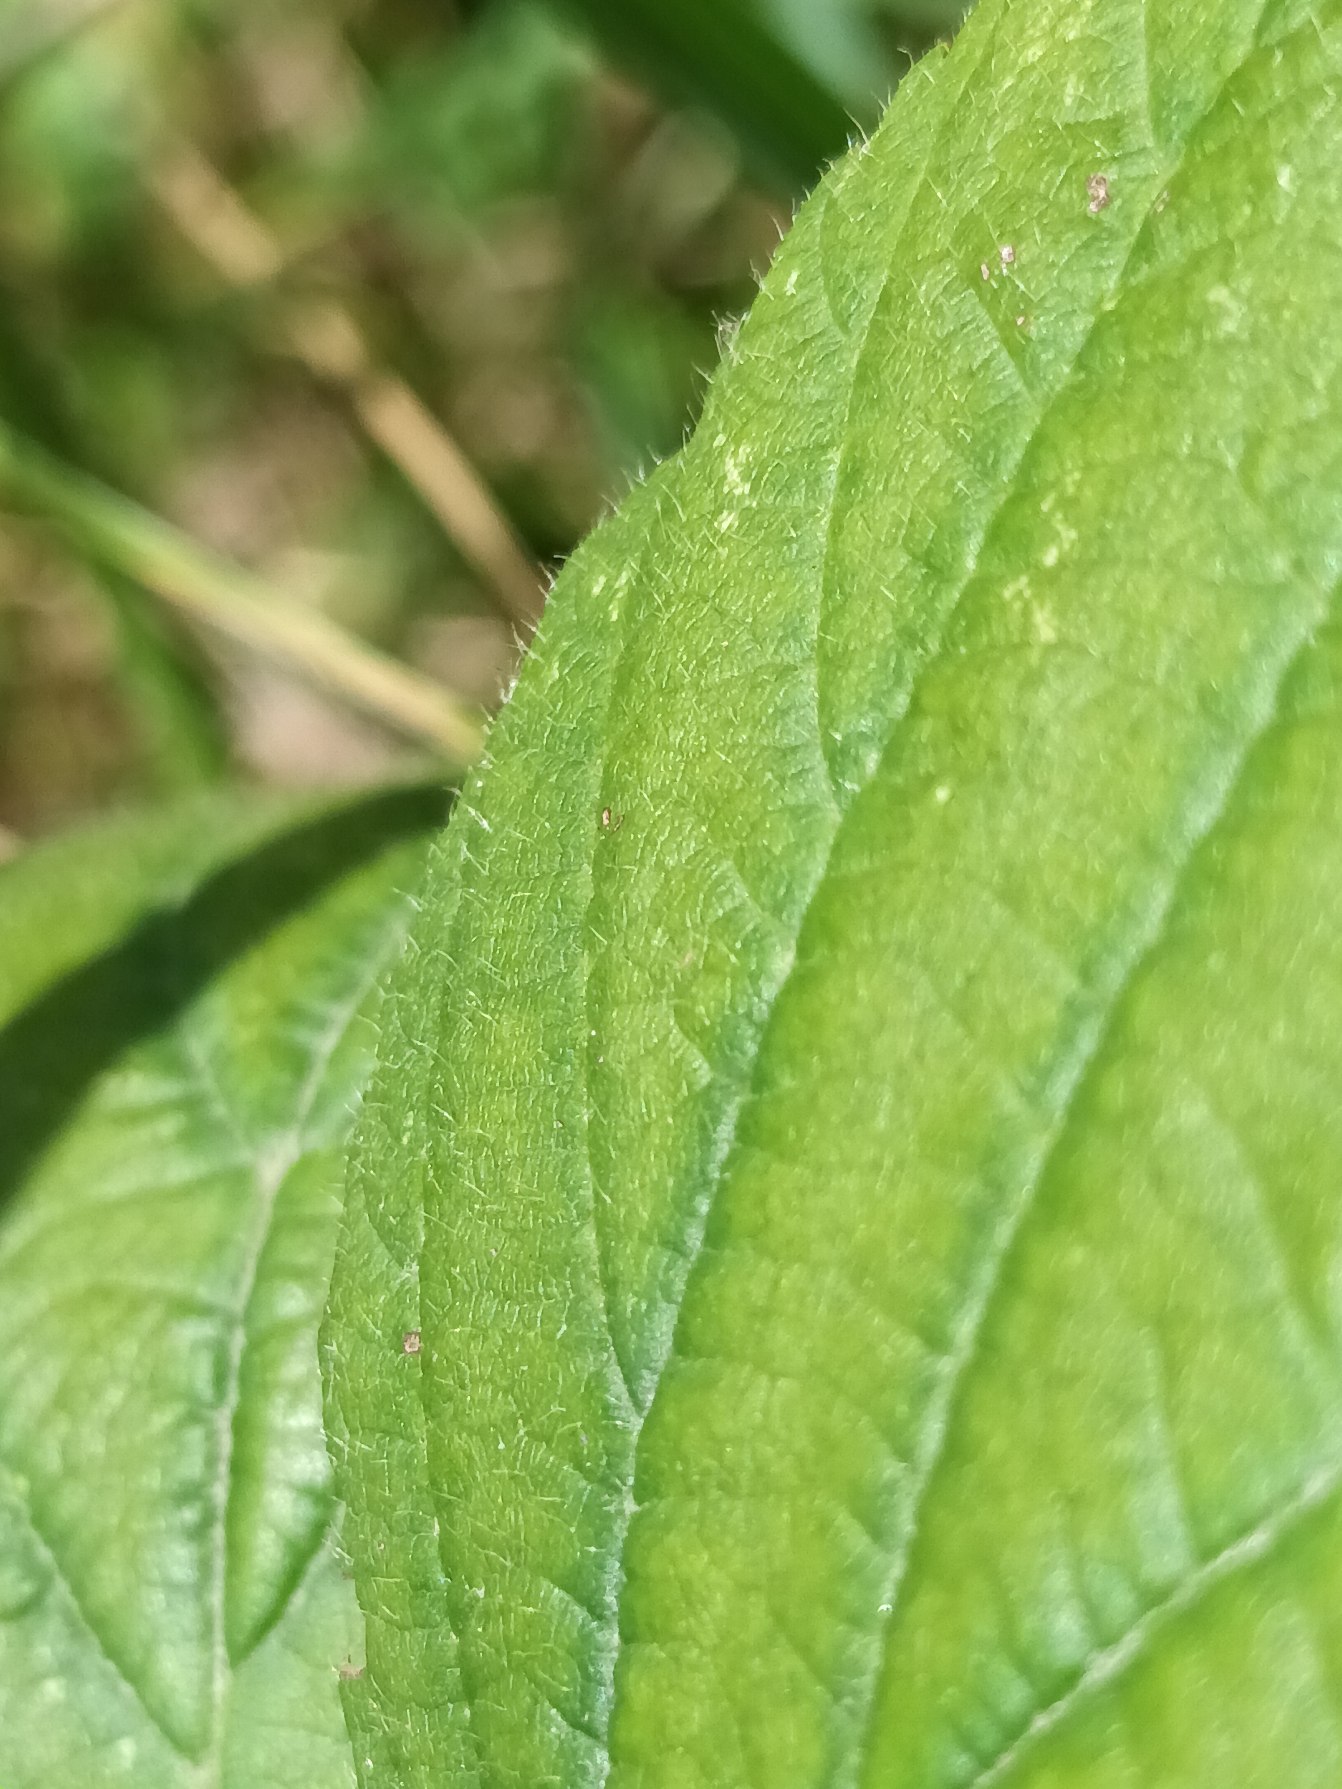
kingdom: Plantae
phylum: Tracheophyta
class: Magnoliopsida
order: Rosales
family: Rosaceae
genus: Rubus
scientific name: Rubus fasciculatus
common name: Gråbladet hasselbrombær
